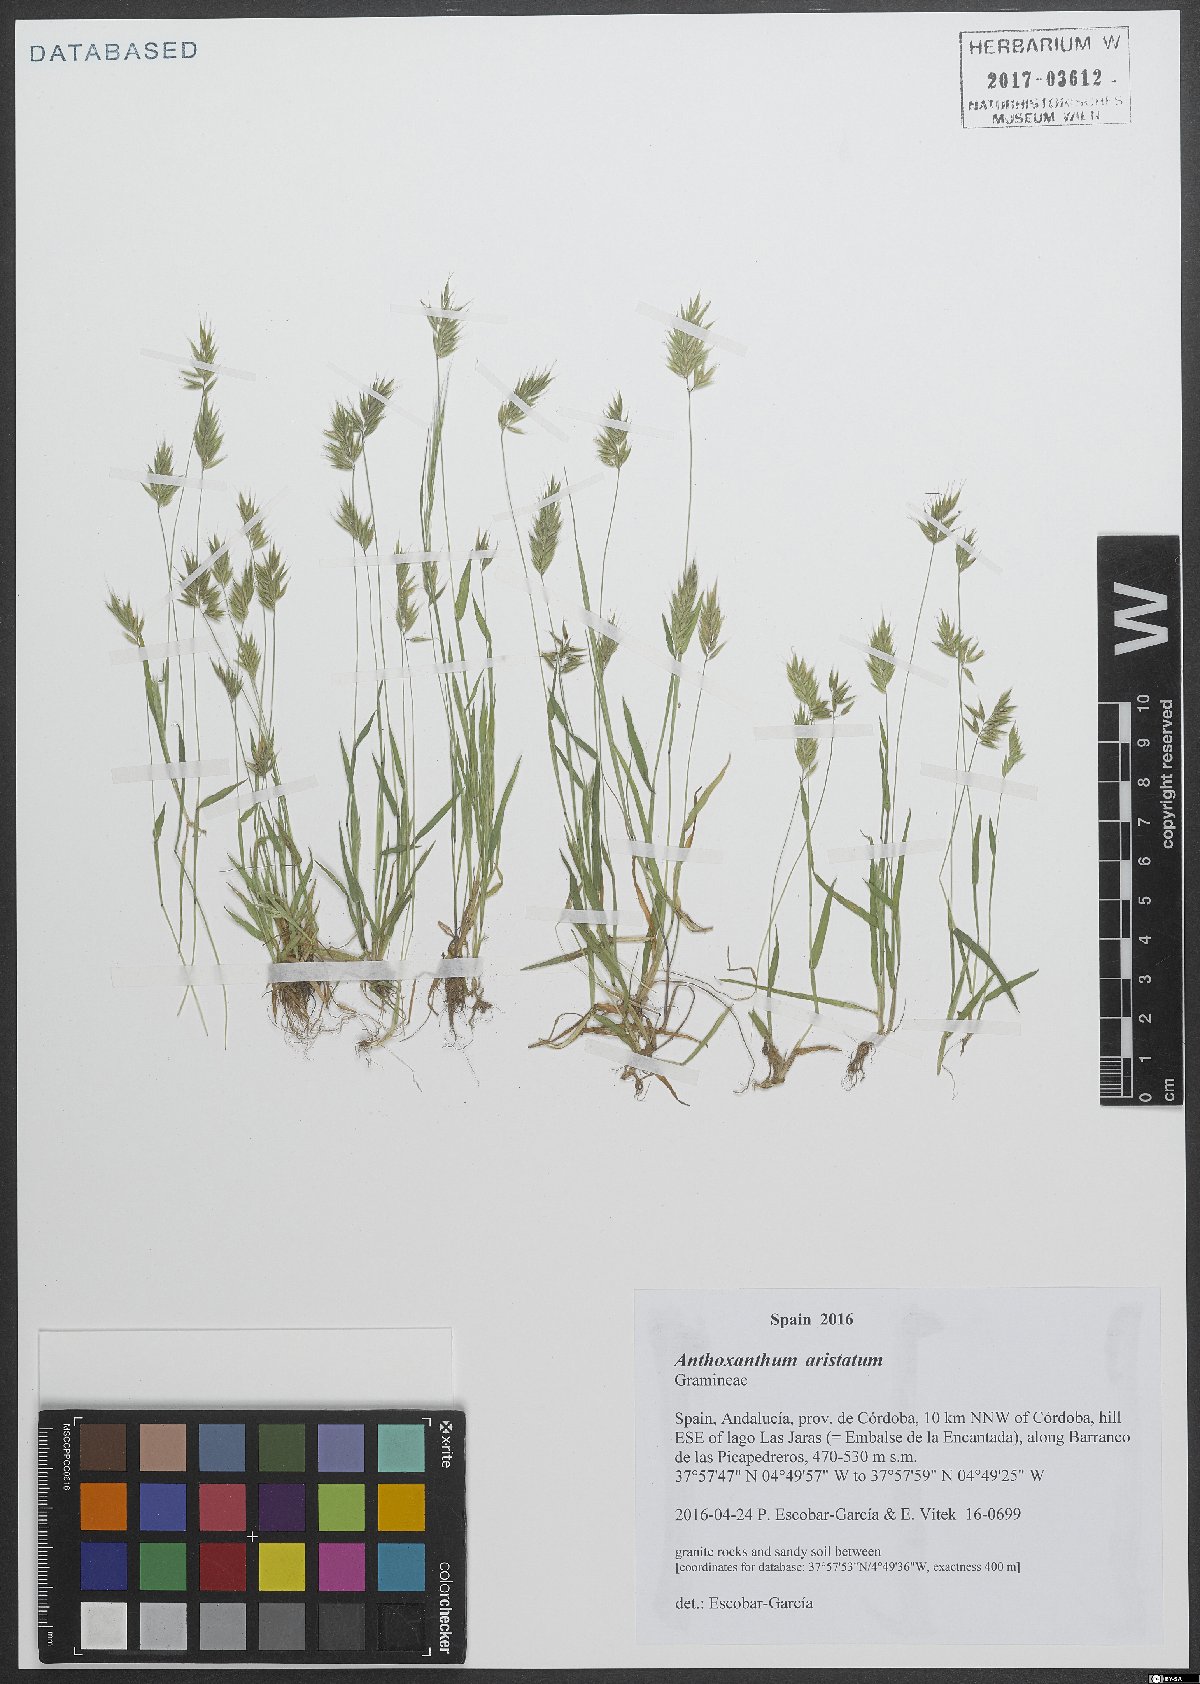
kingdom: Plantae
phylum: Tracheophyta
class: Liliopsida
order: Poales
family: Poaceae
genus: Anthoxanthum
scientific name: Anthoxanthum aristatum
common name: Annual vernal-grass
